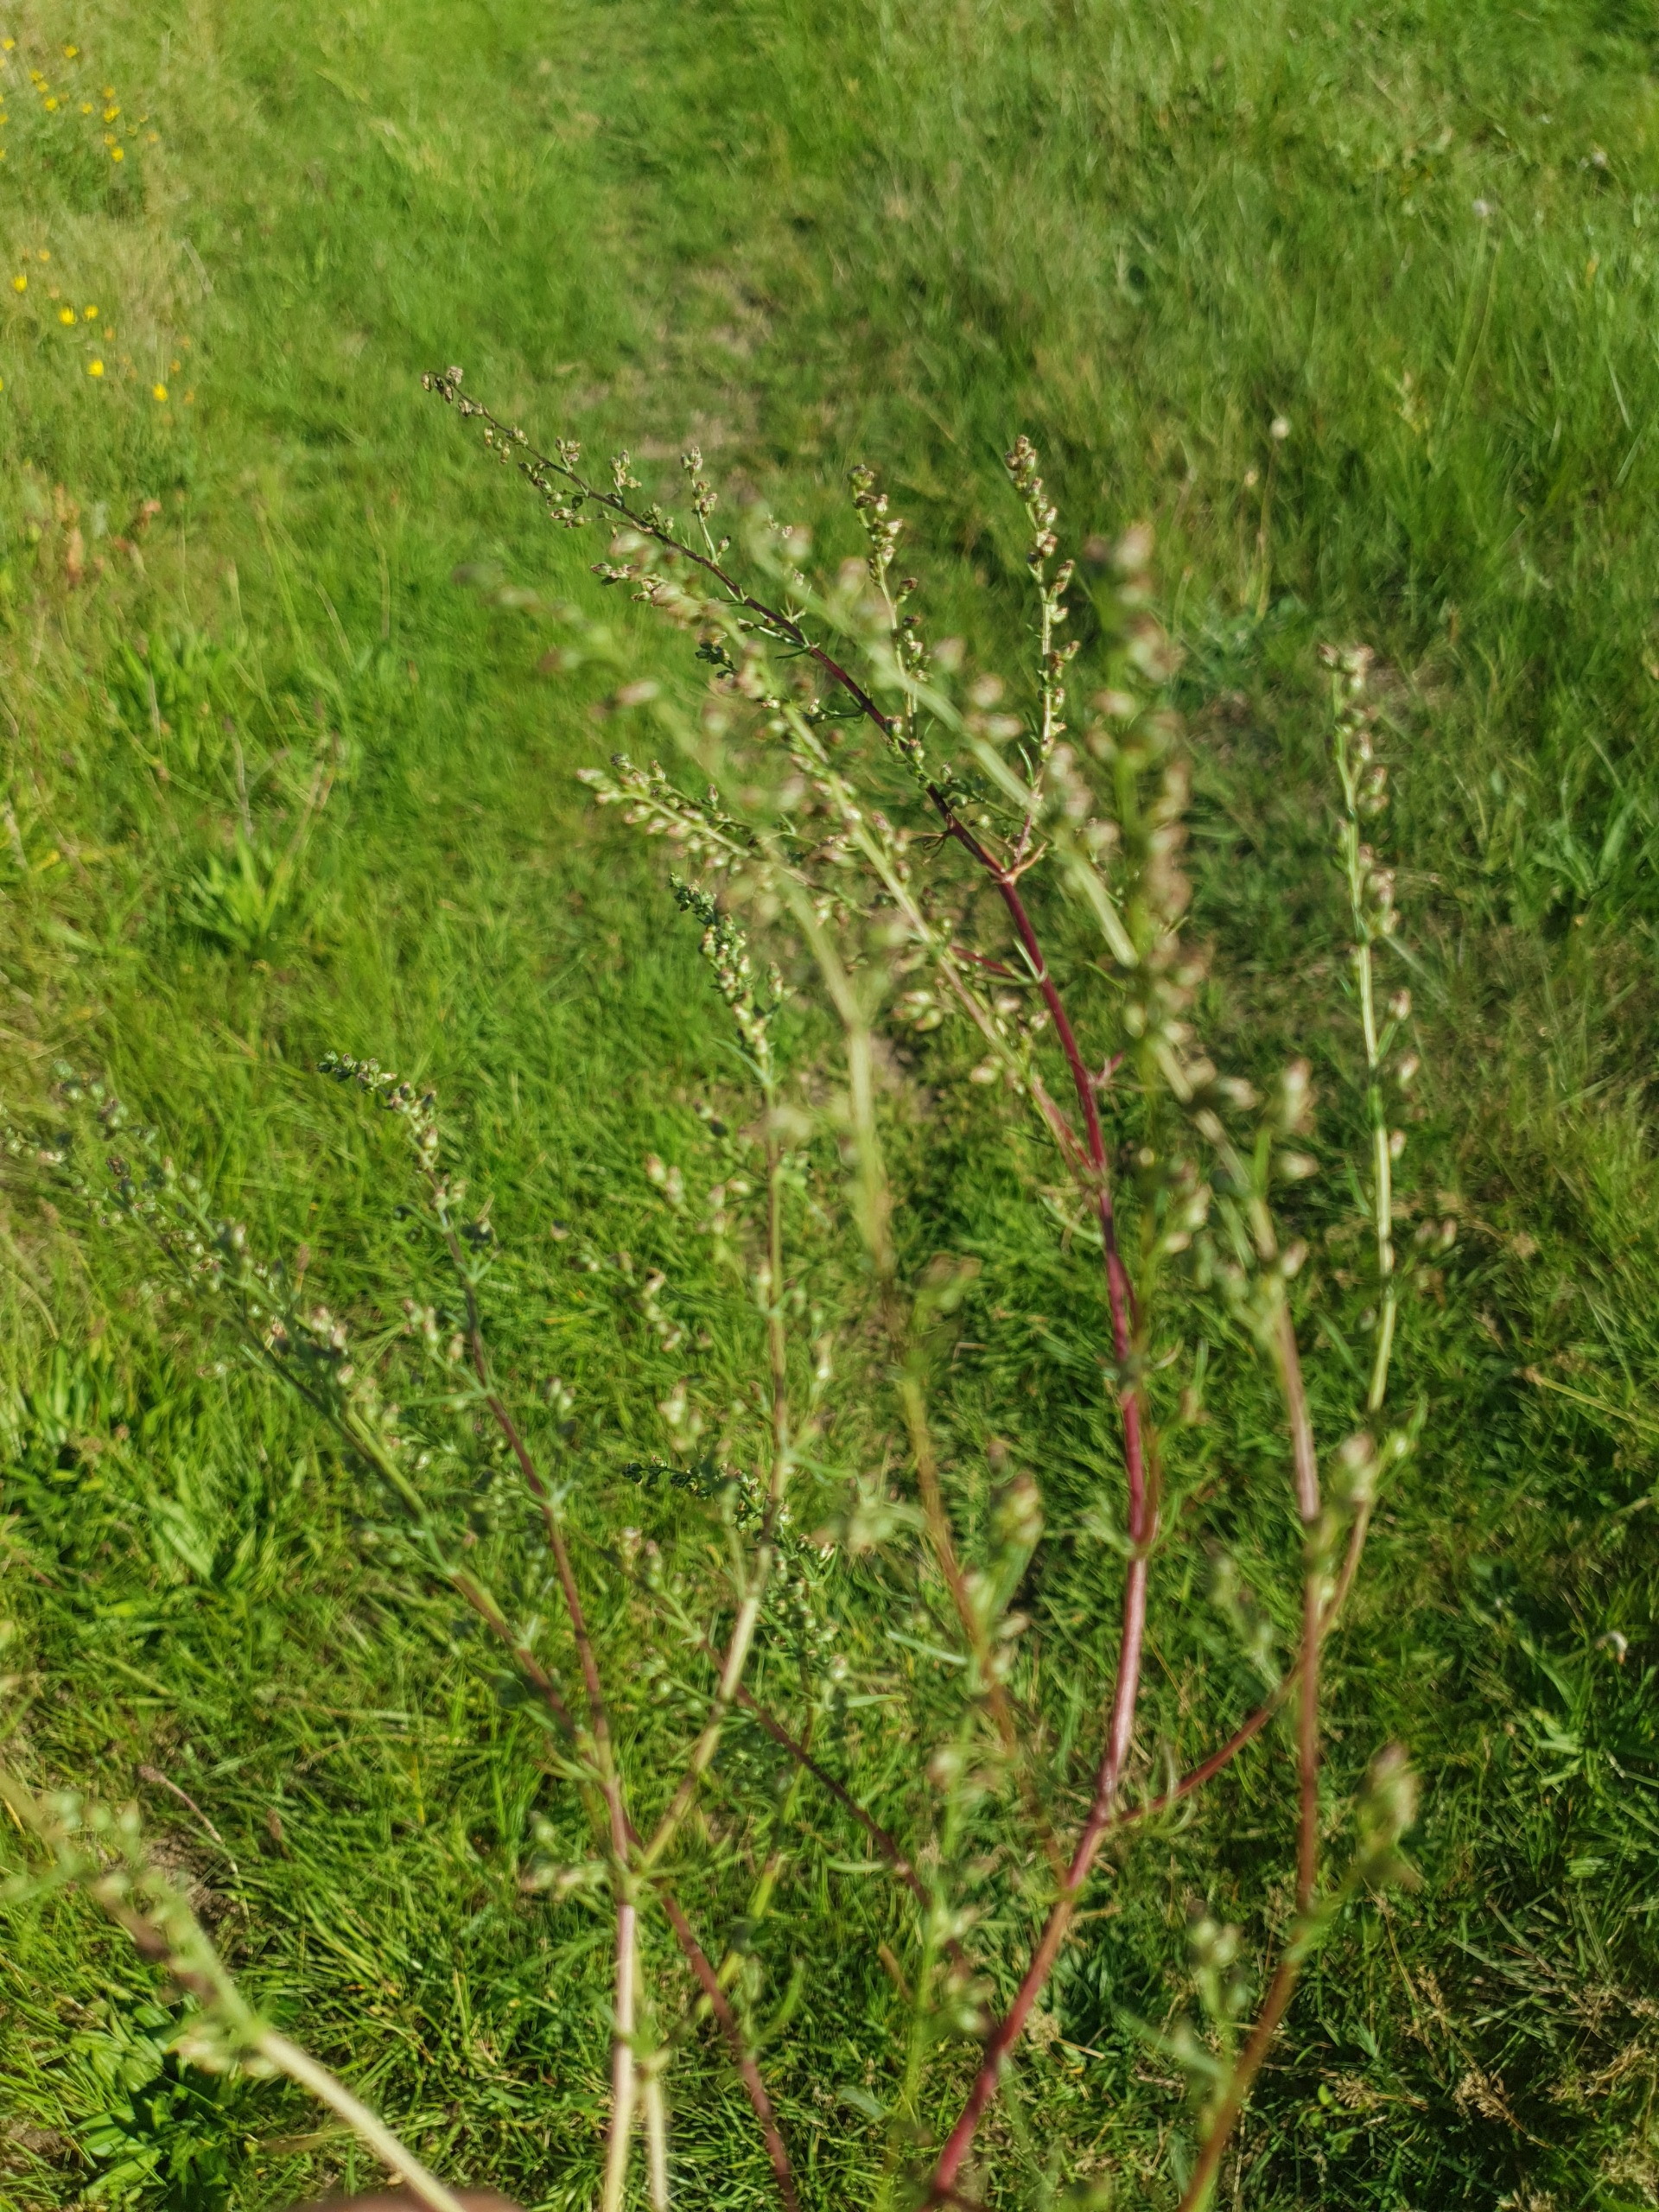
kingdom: Plantae
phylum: Tracheophyta
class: Magnoliopsida
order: Asterales
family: Asteraceae
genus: Artemisia
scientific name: Artemisia campestris
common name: Mark-bynke
